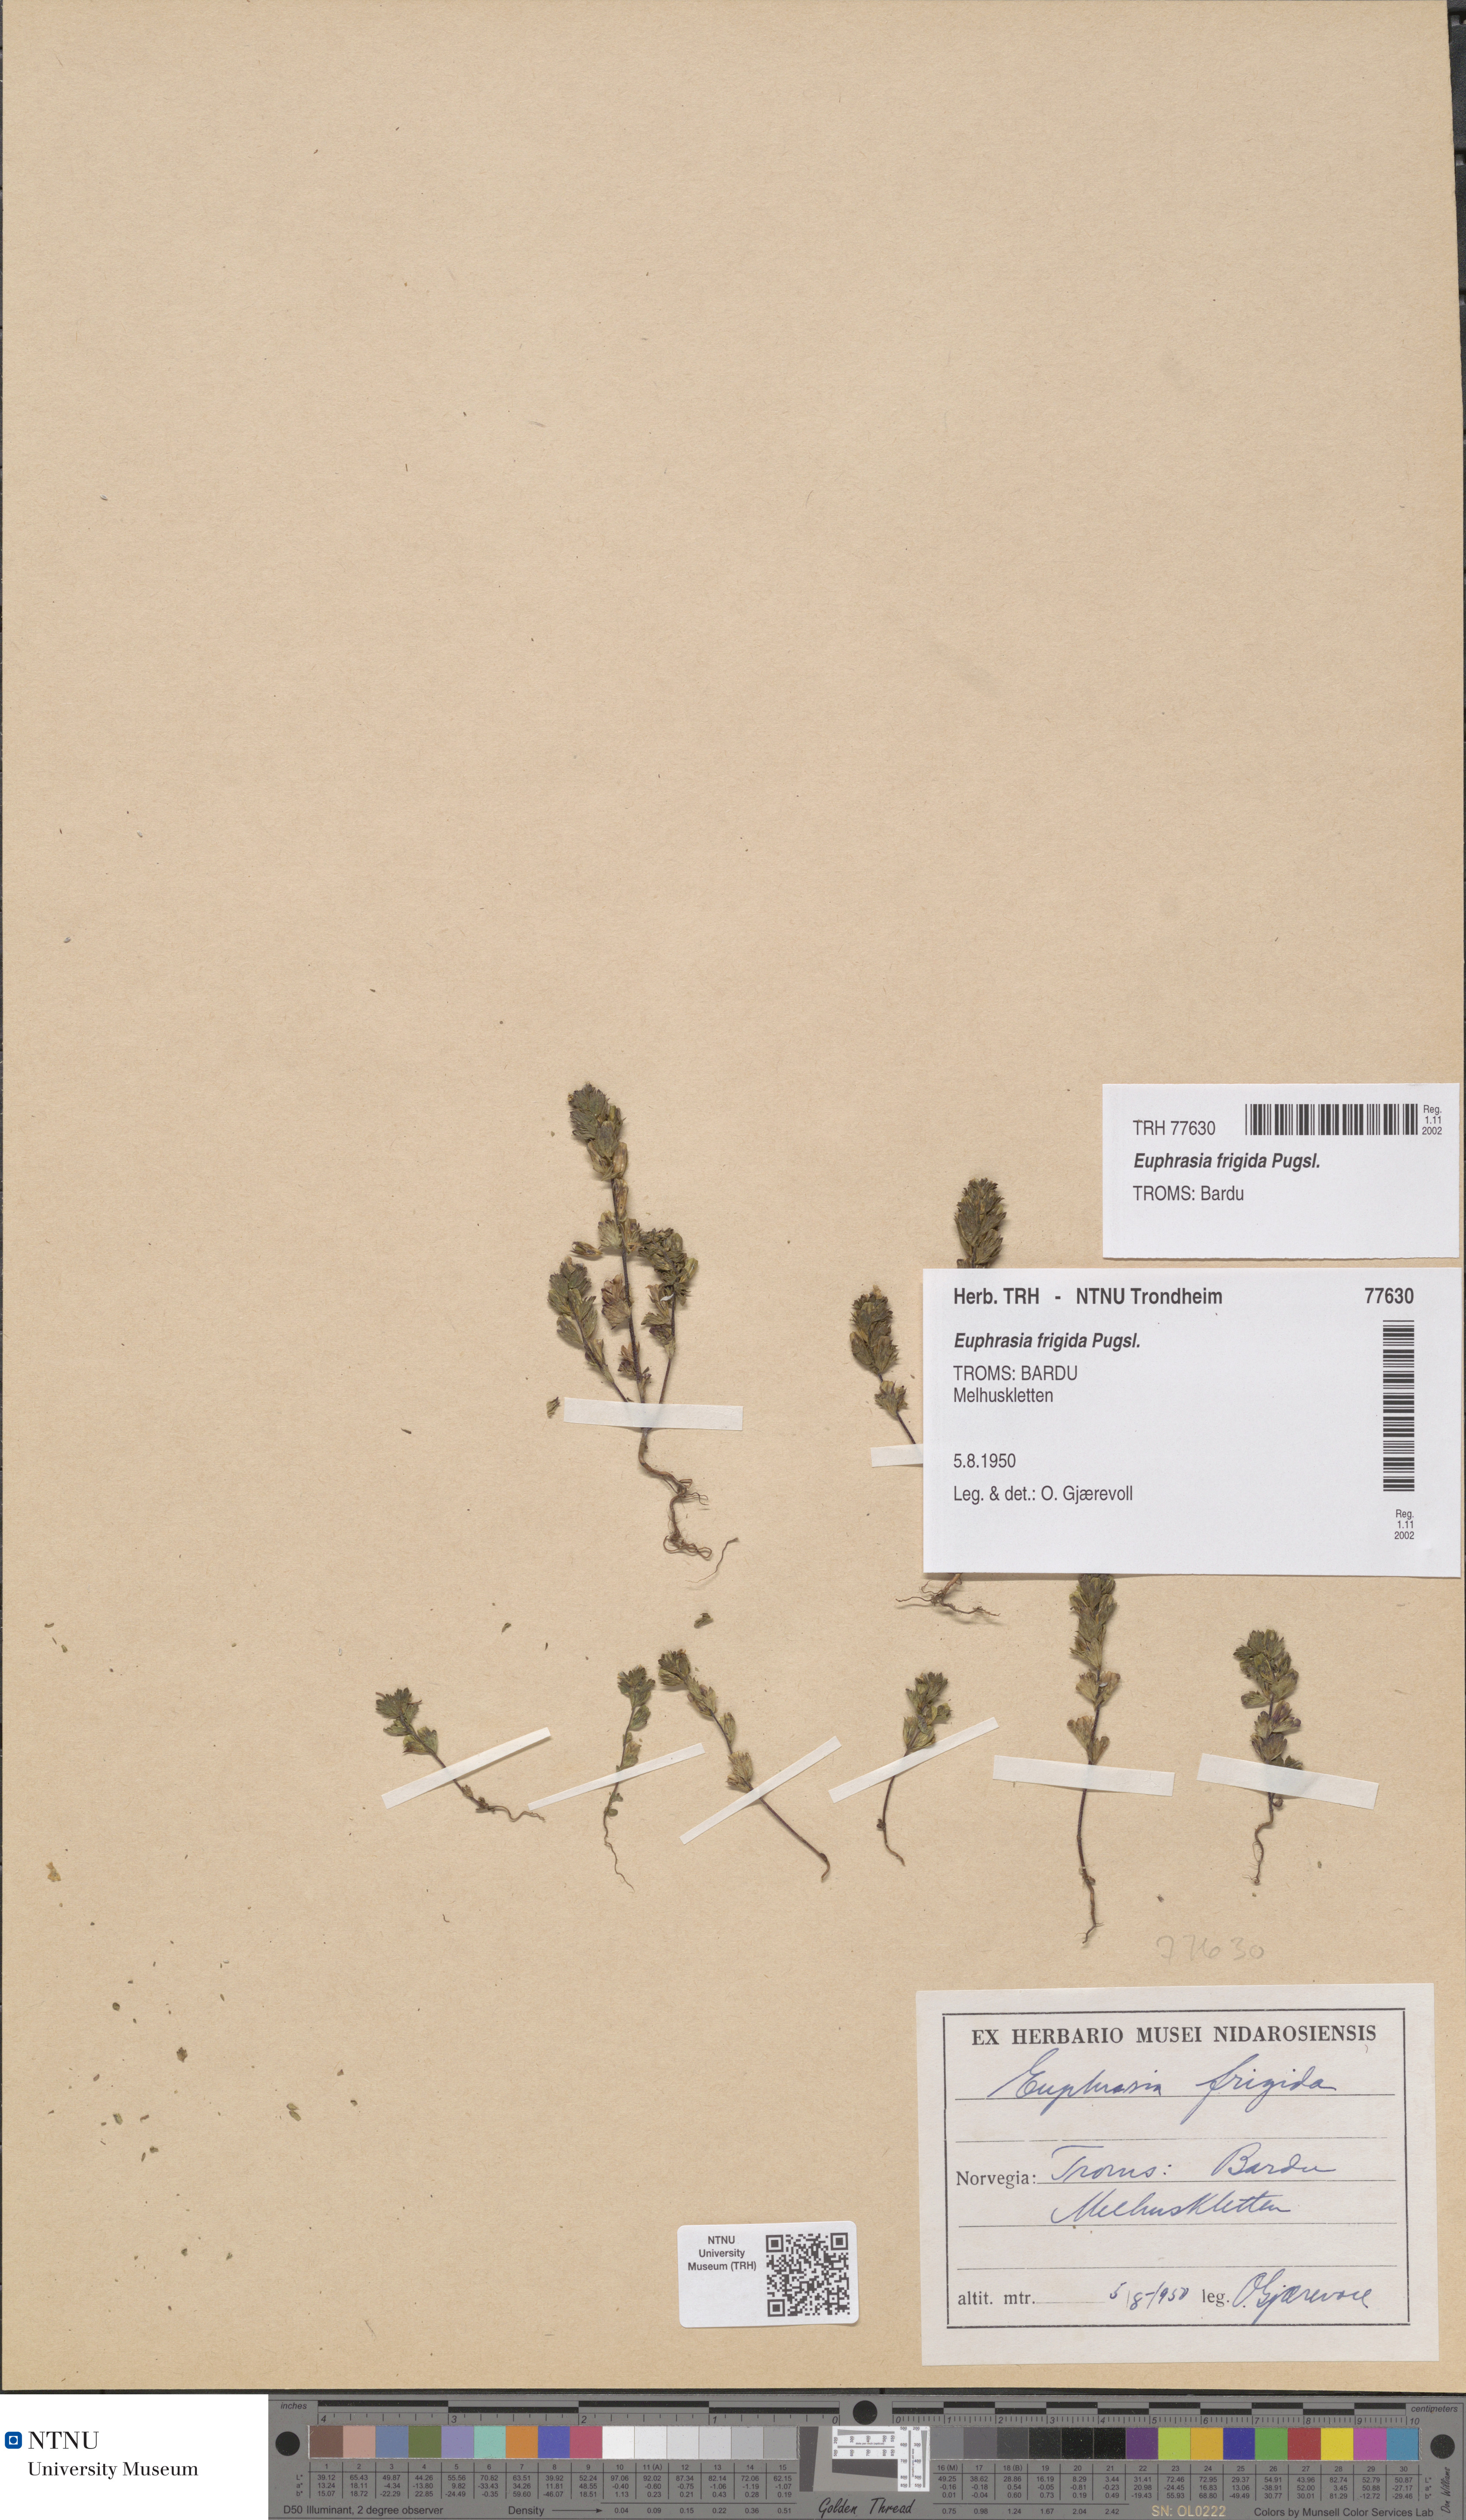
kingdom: Plantae
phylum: Tracheophyta
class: Magnoliopsida
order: Lamiales
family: Orobanchaceae
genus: Euphrasia
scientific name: Euphrasia wettsteinii
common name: Wettstein's eyebright
